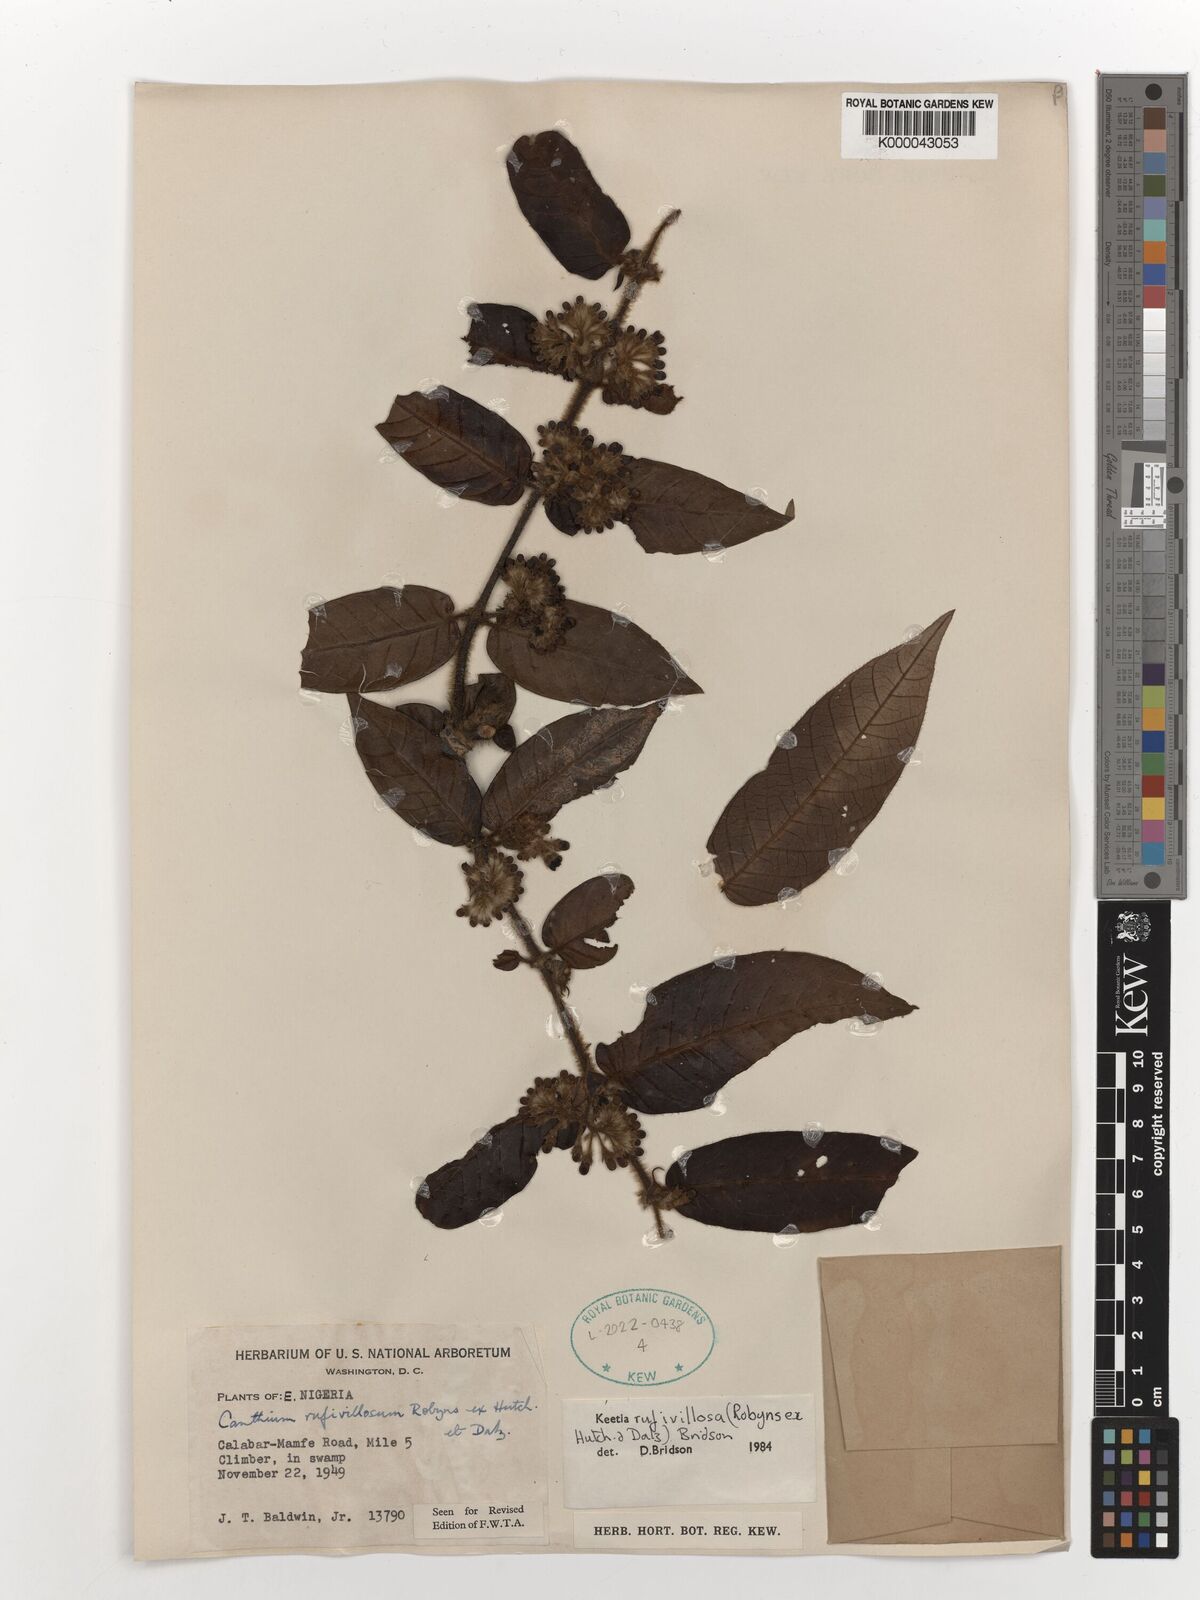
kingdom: Plantae
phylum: Tracheophyta
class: Magnoliopsida
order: Gentianales
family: Rubiaceae
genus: Keetia
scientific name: Keetia rufivillosa
